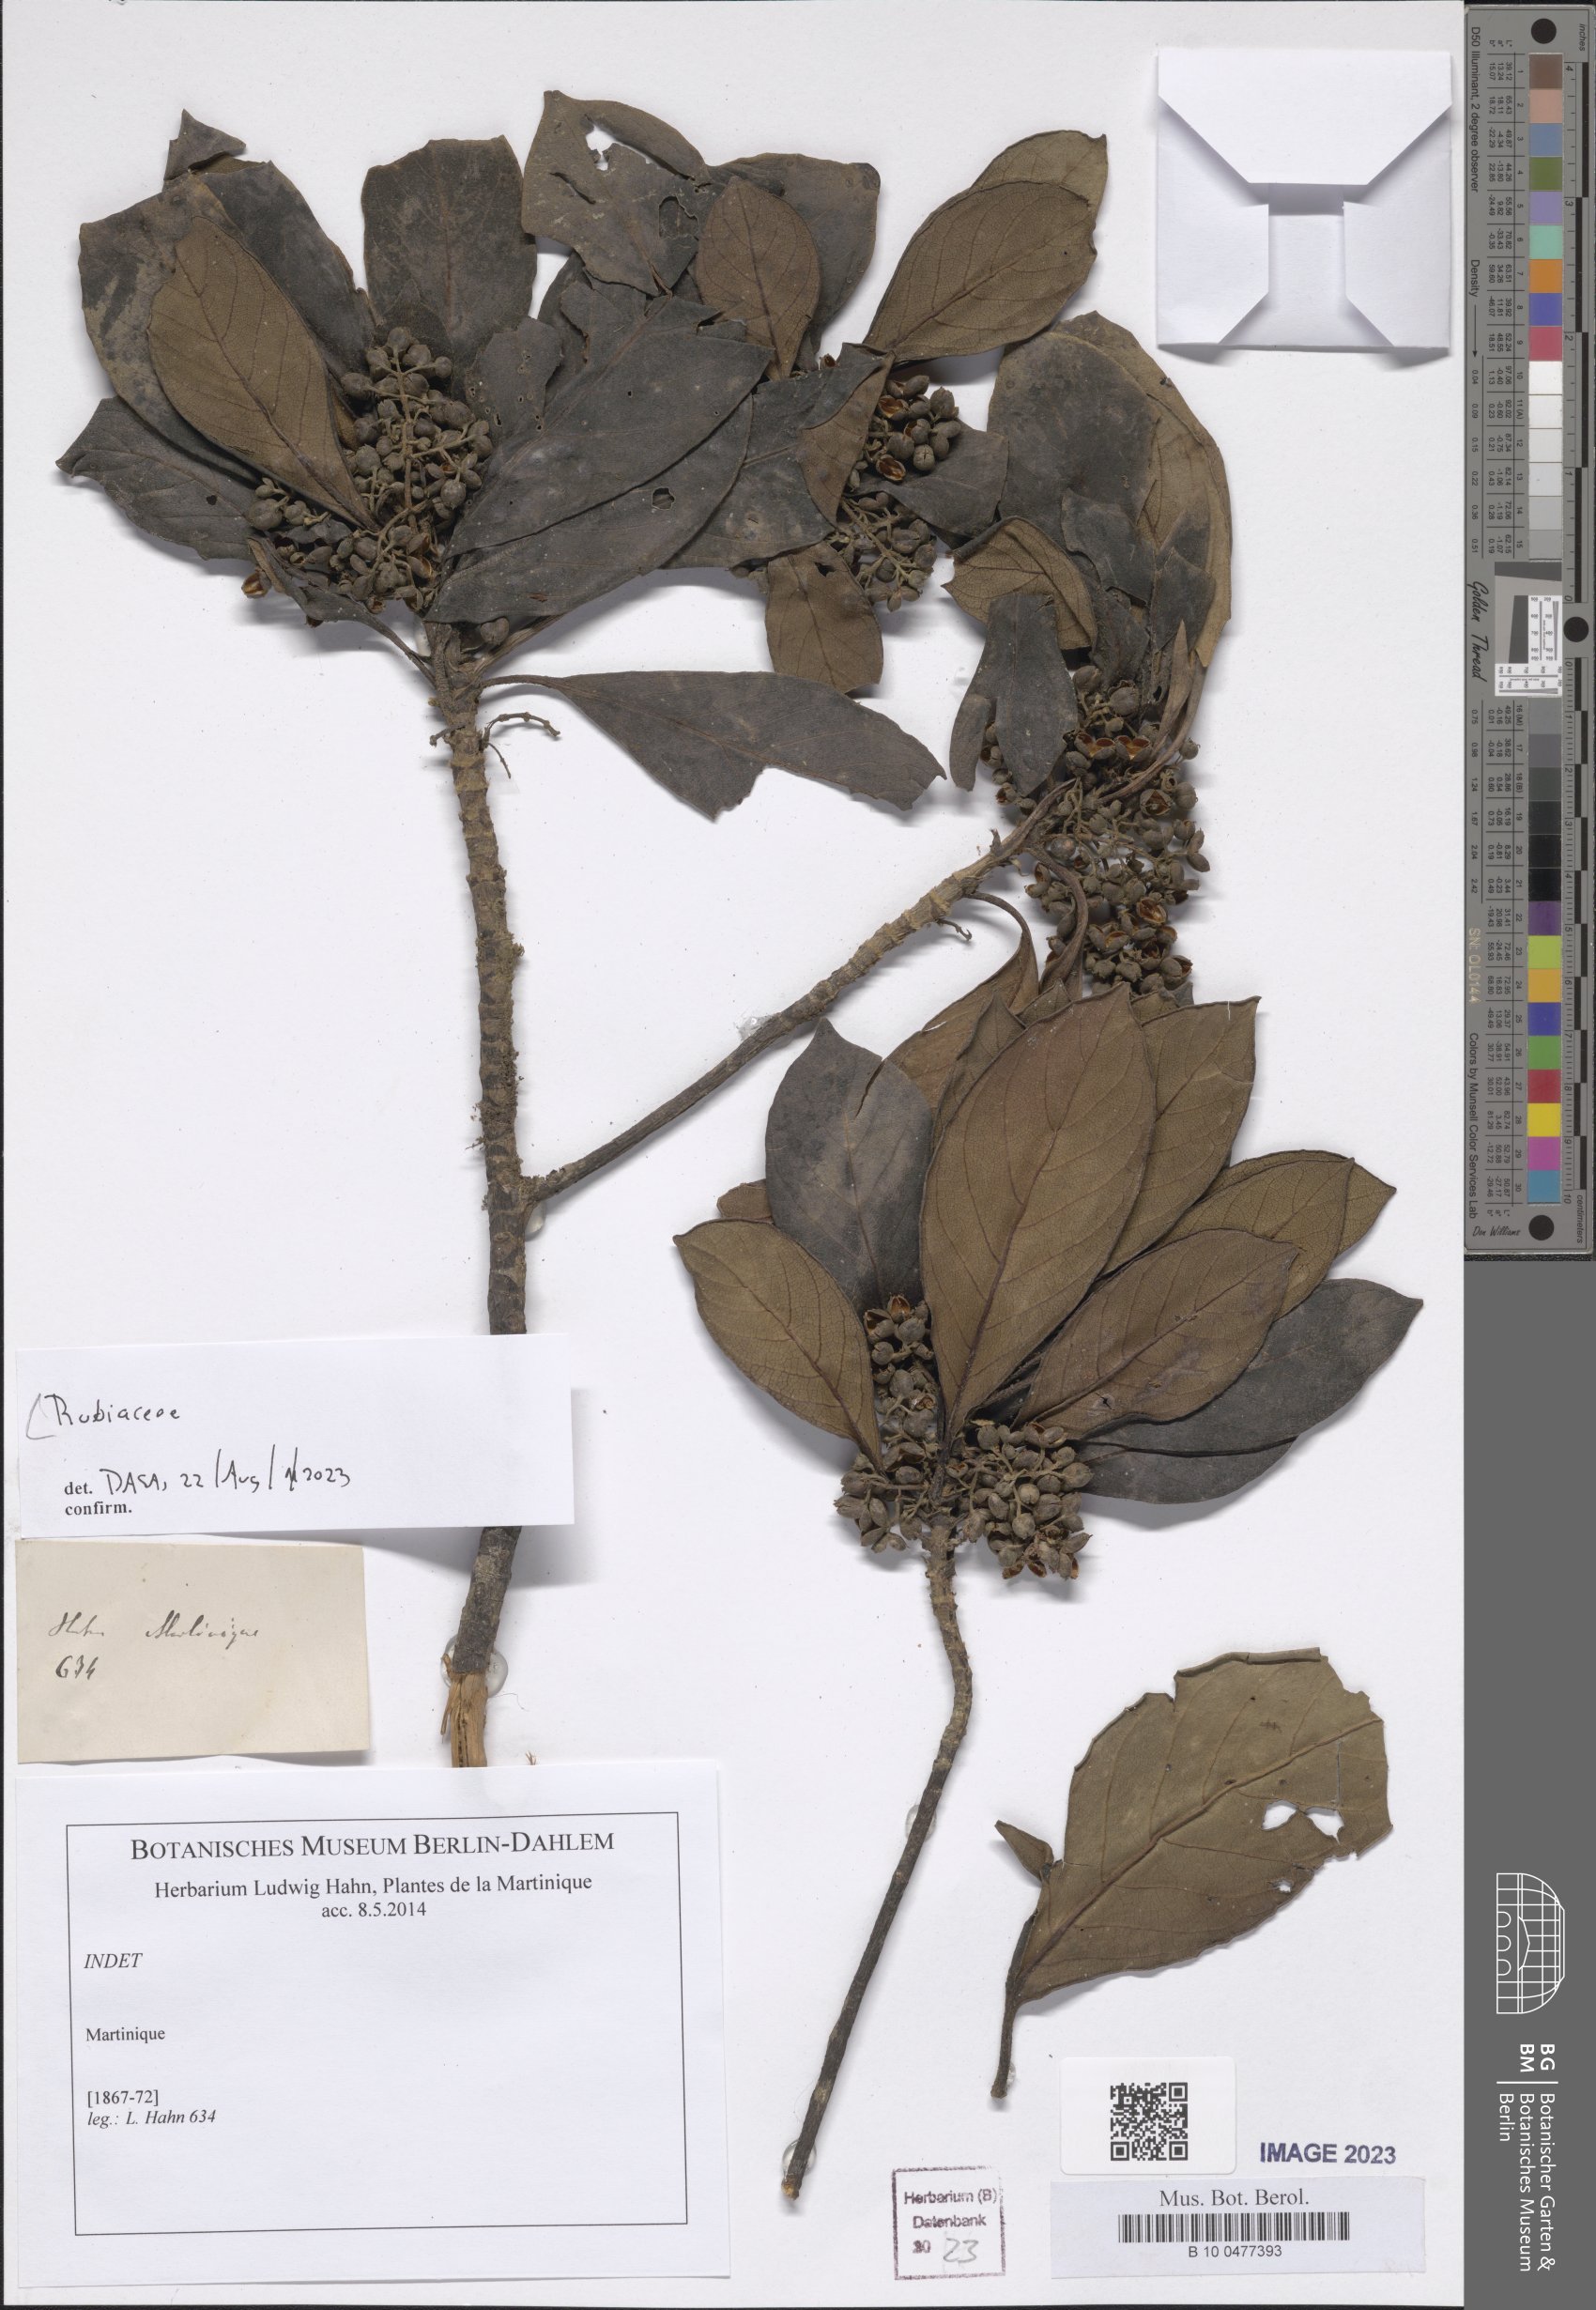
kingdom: Plantae
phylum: Tracheophyta
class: Magnoliopsida
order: Gentianales
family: Rubiaceae
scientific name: Rubiaceae
